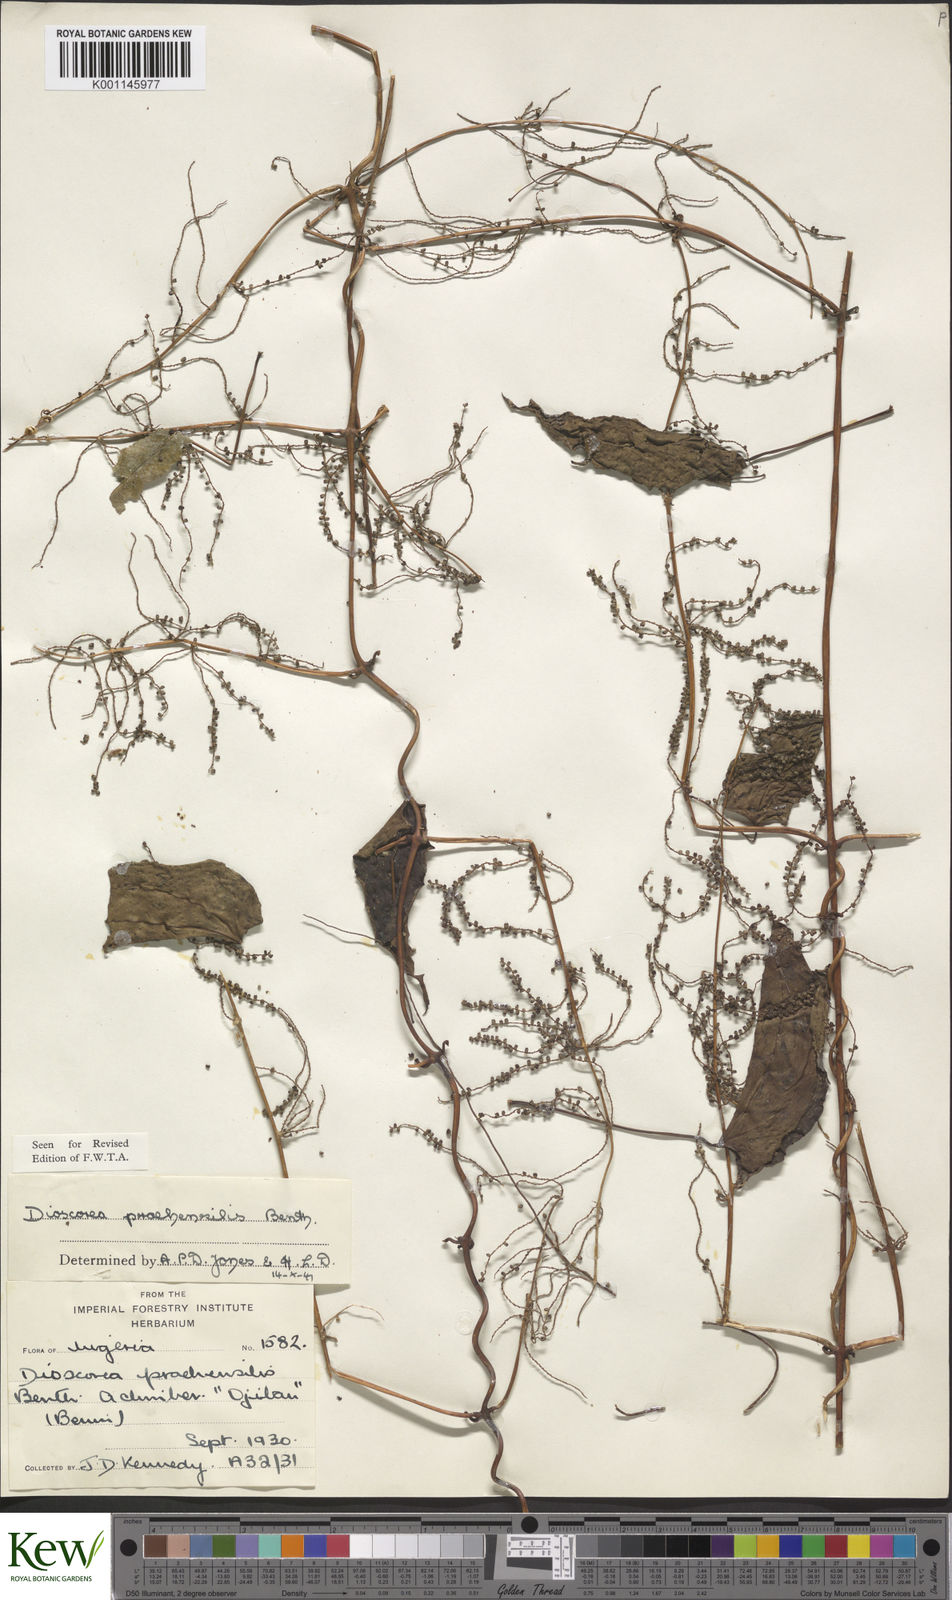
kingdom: Plantae
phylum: Tracheophyta
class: Liliopsida
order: Dioscoreales
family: Dioscoreaceae
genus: Dioscorea
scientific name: Dioscorea praehensilis
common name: Bush yam
